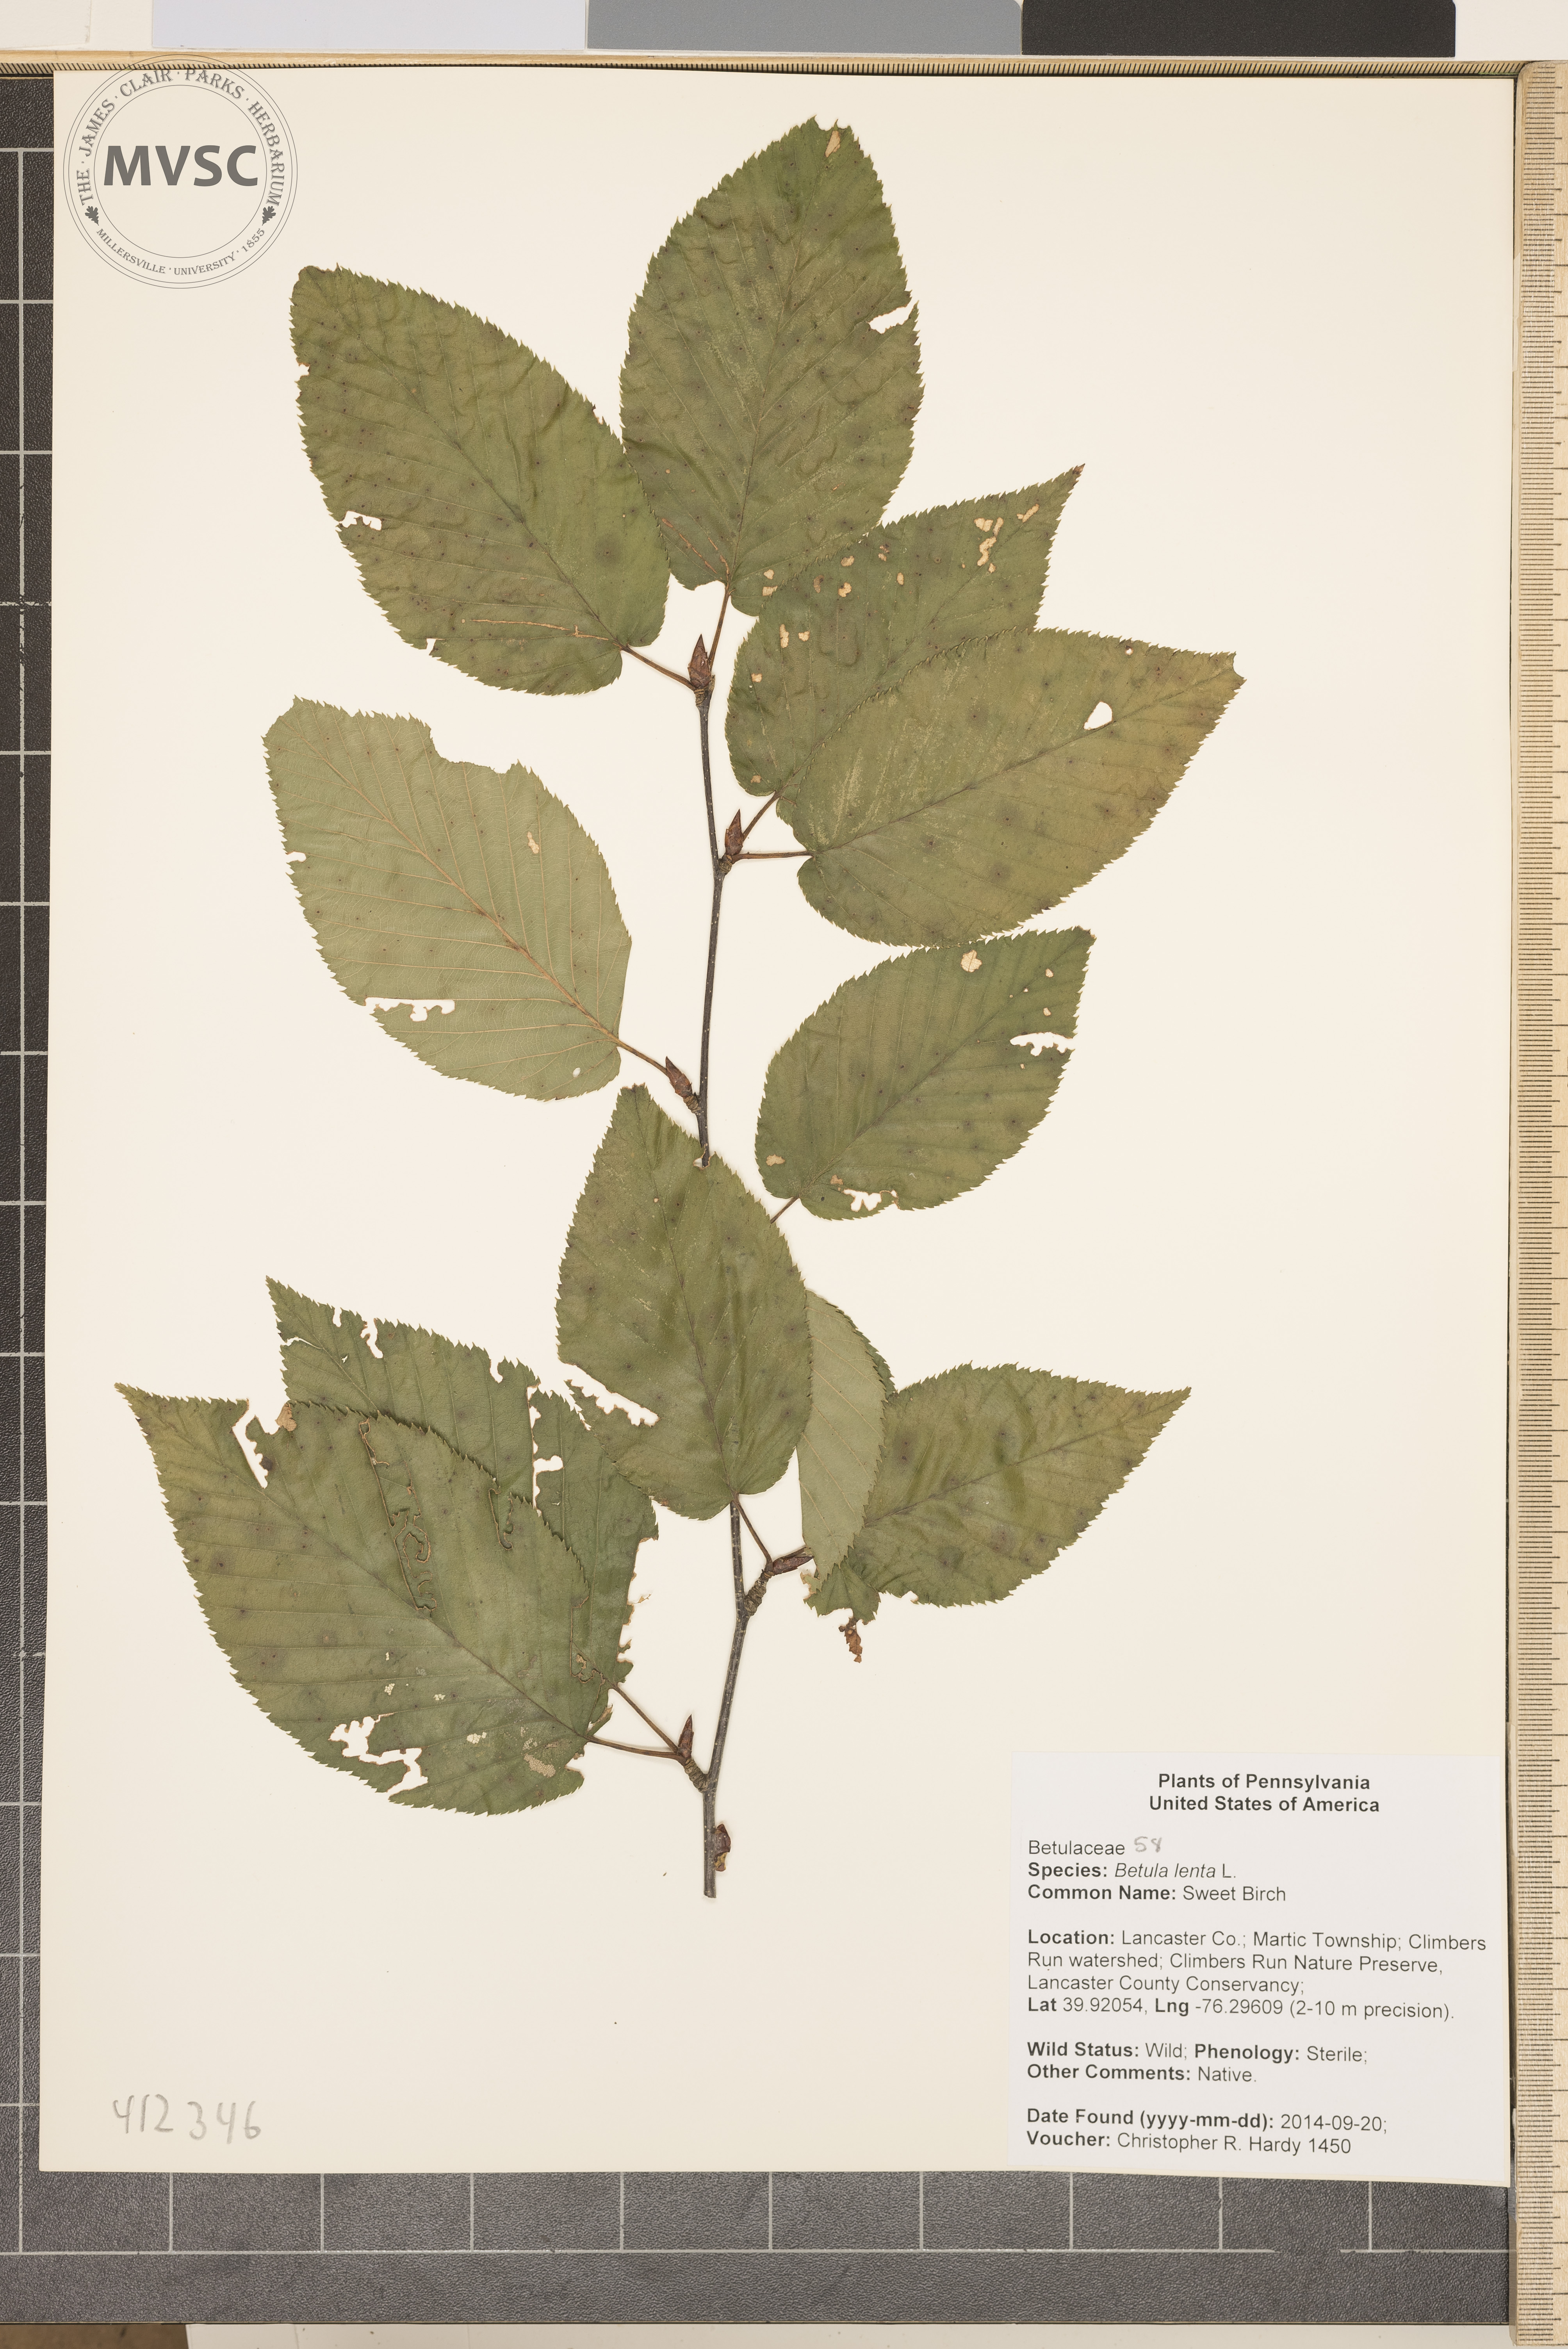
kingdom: Plantae
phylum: Tracheophyta
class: Magnoliopsida
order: Fagales
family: Betulaceae
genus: Betula
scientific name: Betula lenta
